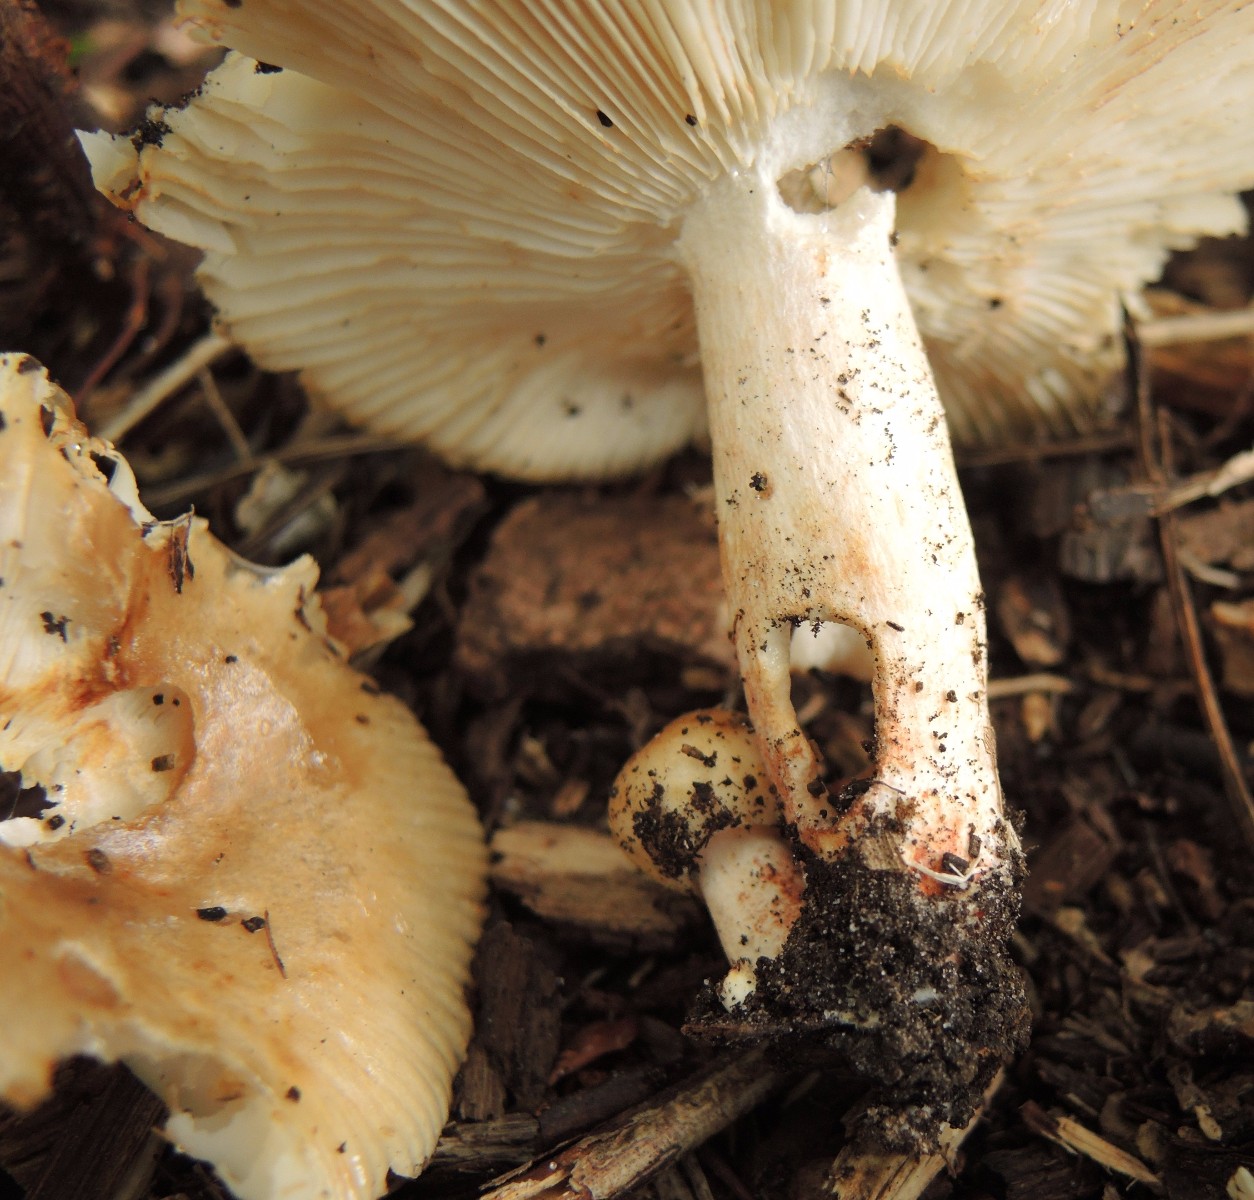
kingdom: Fungi
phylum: Basidiomycota
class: Agaricomycetes
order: Russulales
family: Russulaceae
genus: Russula
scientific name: Russula recondita
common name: mild kam-skørhat
